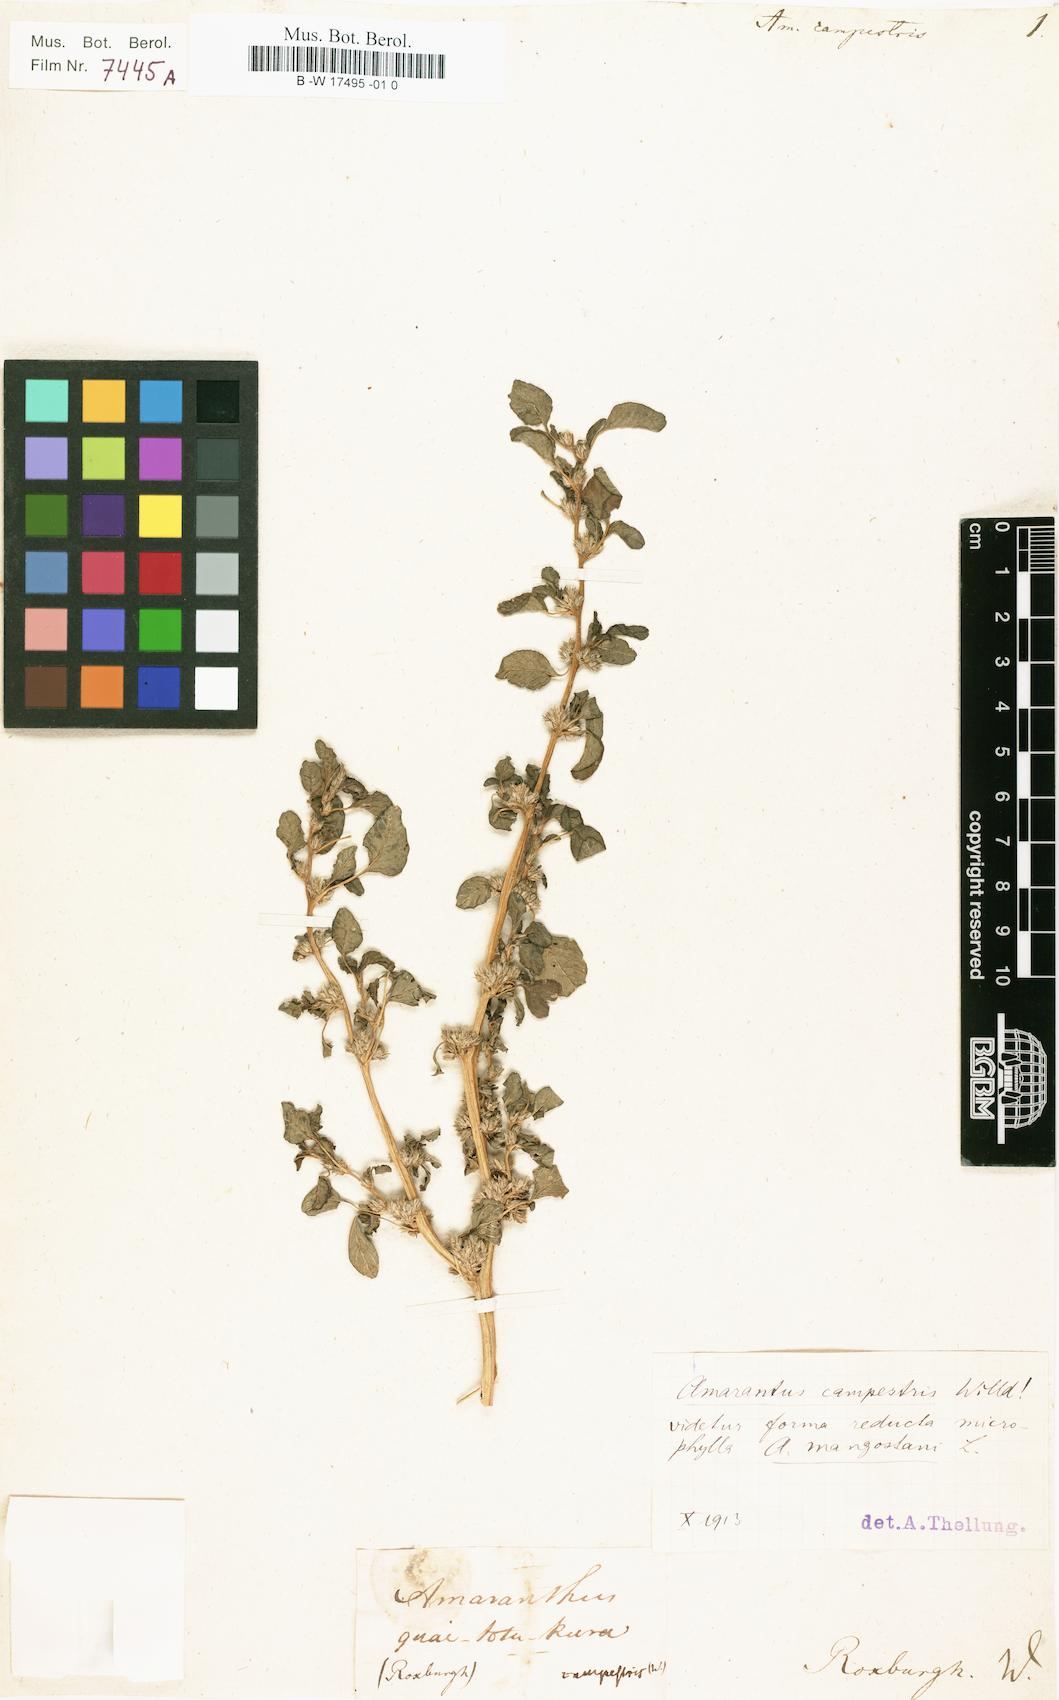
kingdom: Plantae
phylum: Tracheophyta
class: Magnoliopsida
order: Caryophyllales
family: Amaranthaceae
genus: Amaranthus
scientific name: Amaranthus albus
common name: White pigweed
